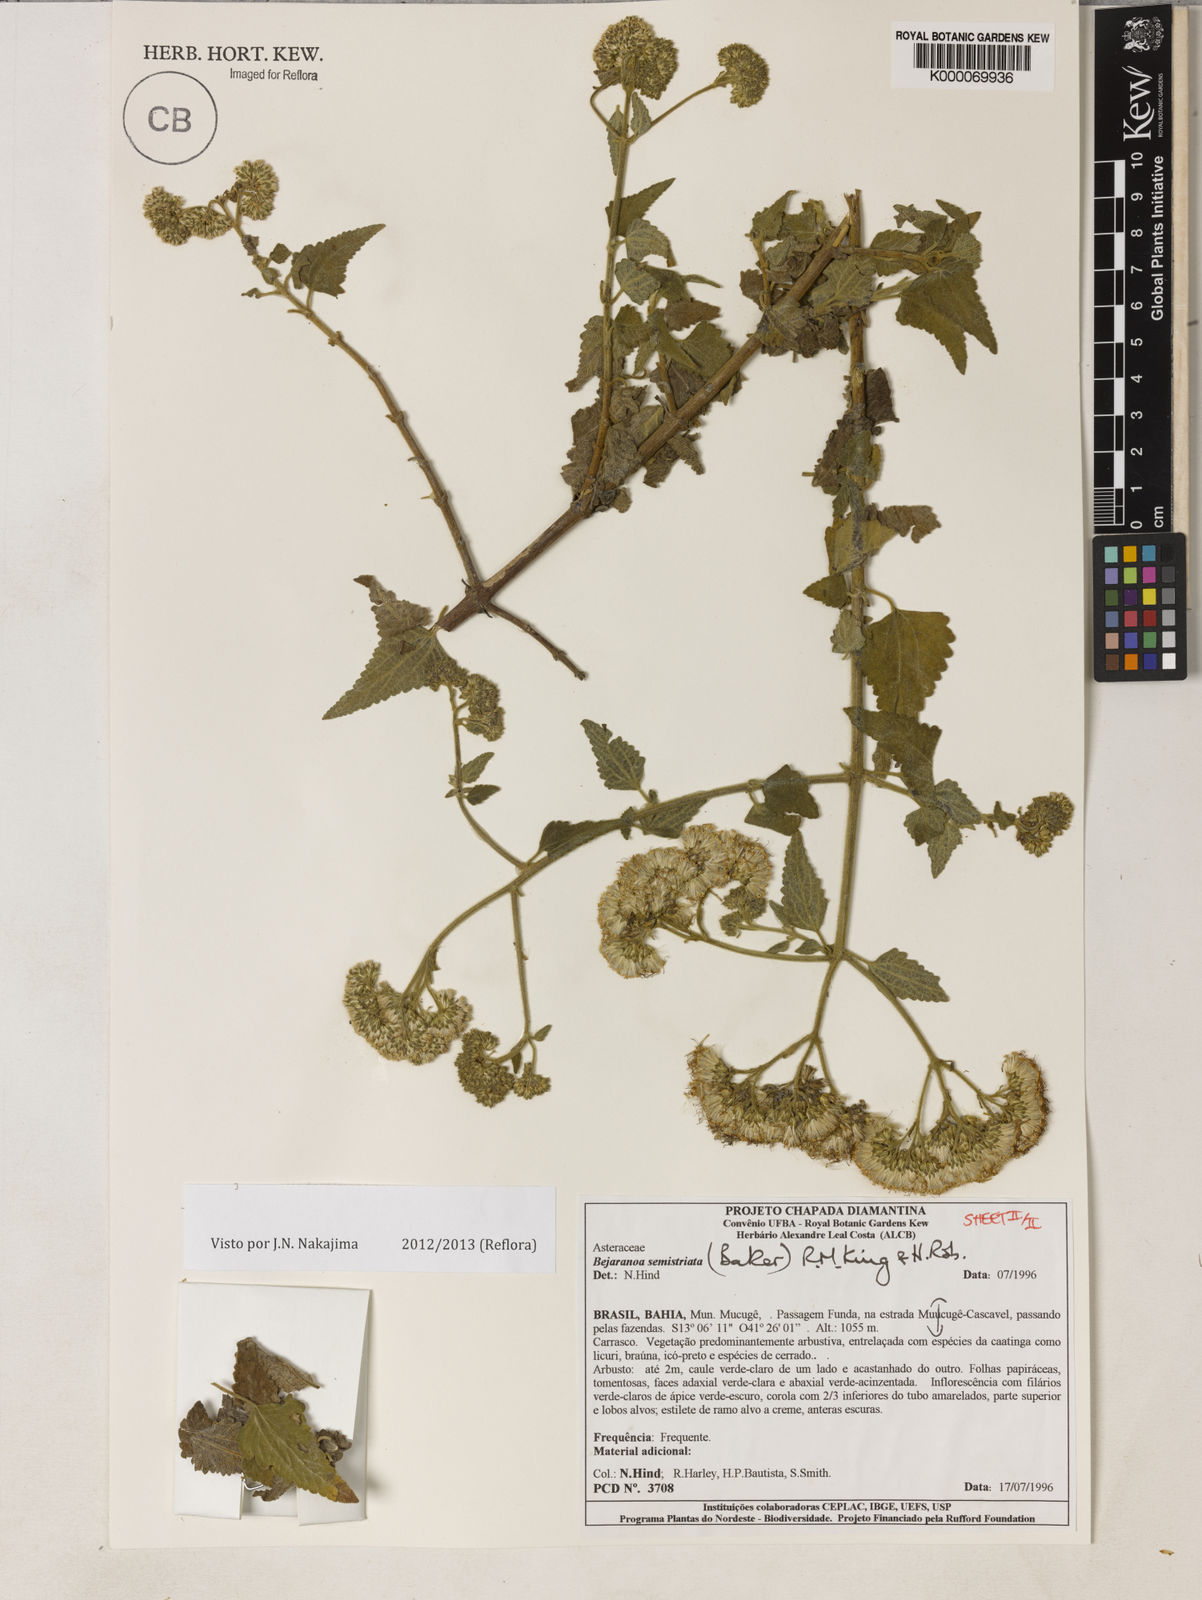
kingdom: Plantae
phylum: Tracheophyta
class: Magnoliopsida
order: Asterales
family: Asteraceae
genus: Bejaranoa
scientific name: Bejaranoa semistriata
